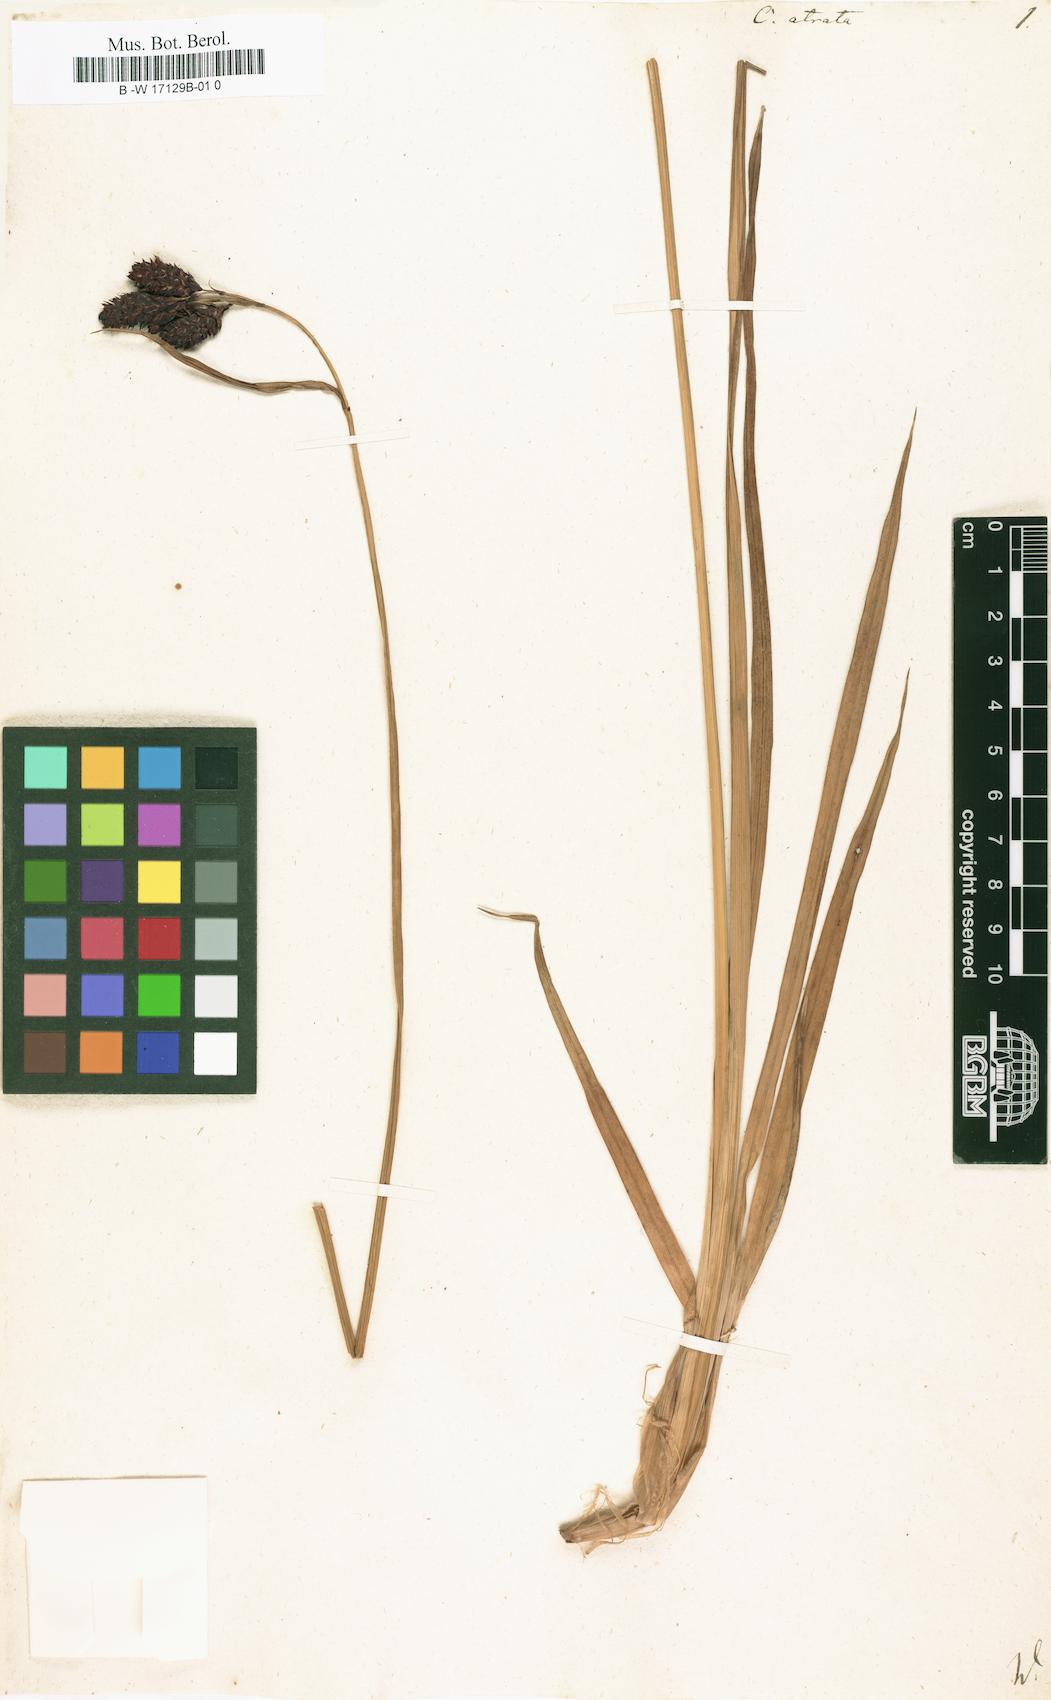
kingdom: Plantae
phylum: Tracheophyta
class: Liliopsida
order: Poales
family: Cyperaceae
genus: Carex
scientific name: Carex atrata
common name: Black alpine sedge
